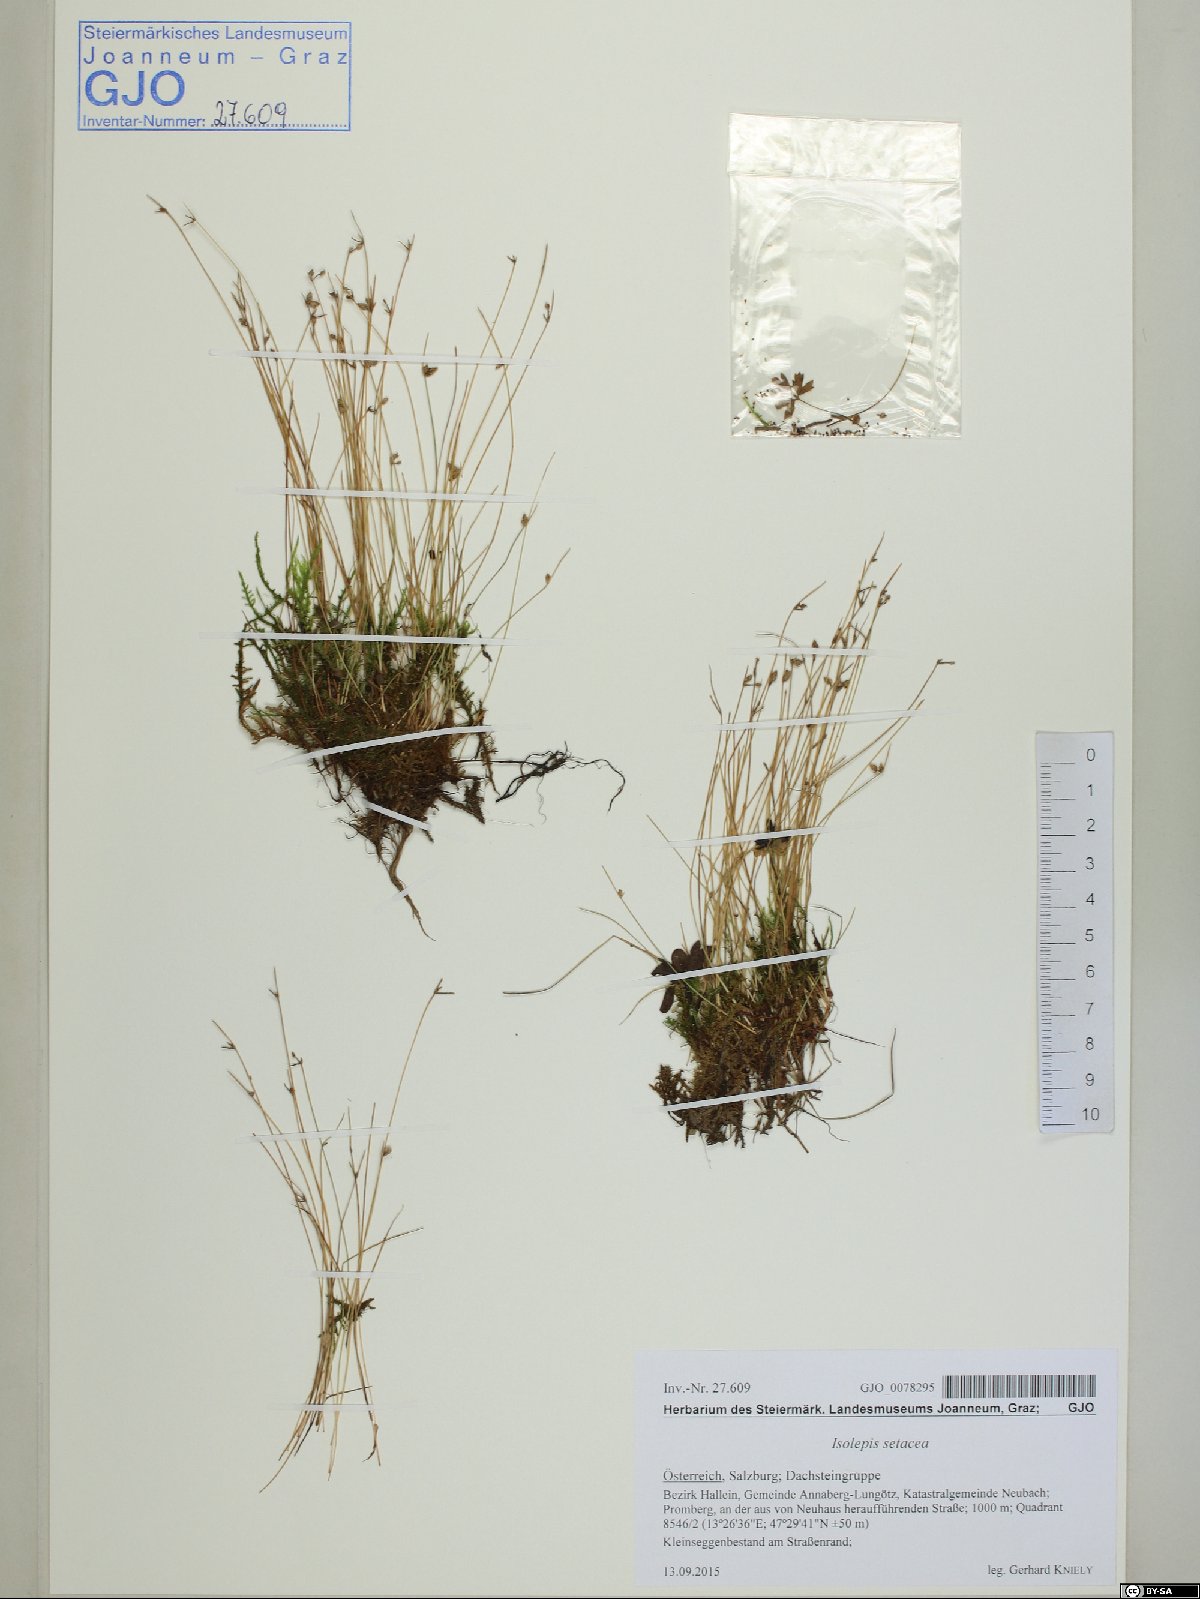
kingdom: Plantae
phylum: Tracheophyta
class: Liliopsida
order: Poales
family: Cyperaceae
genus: Isolepis
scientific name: Isolepis setacea
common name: Bristle club-rush
